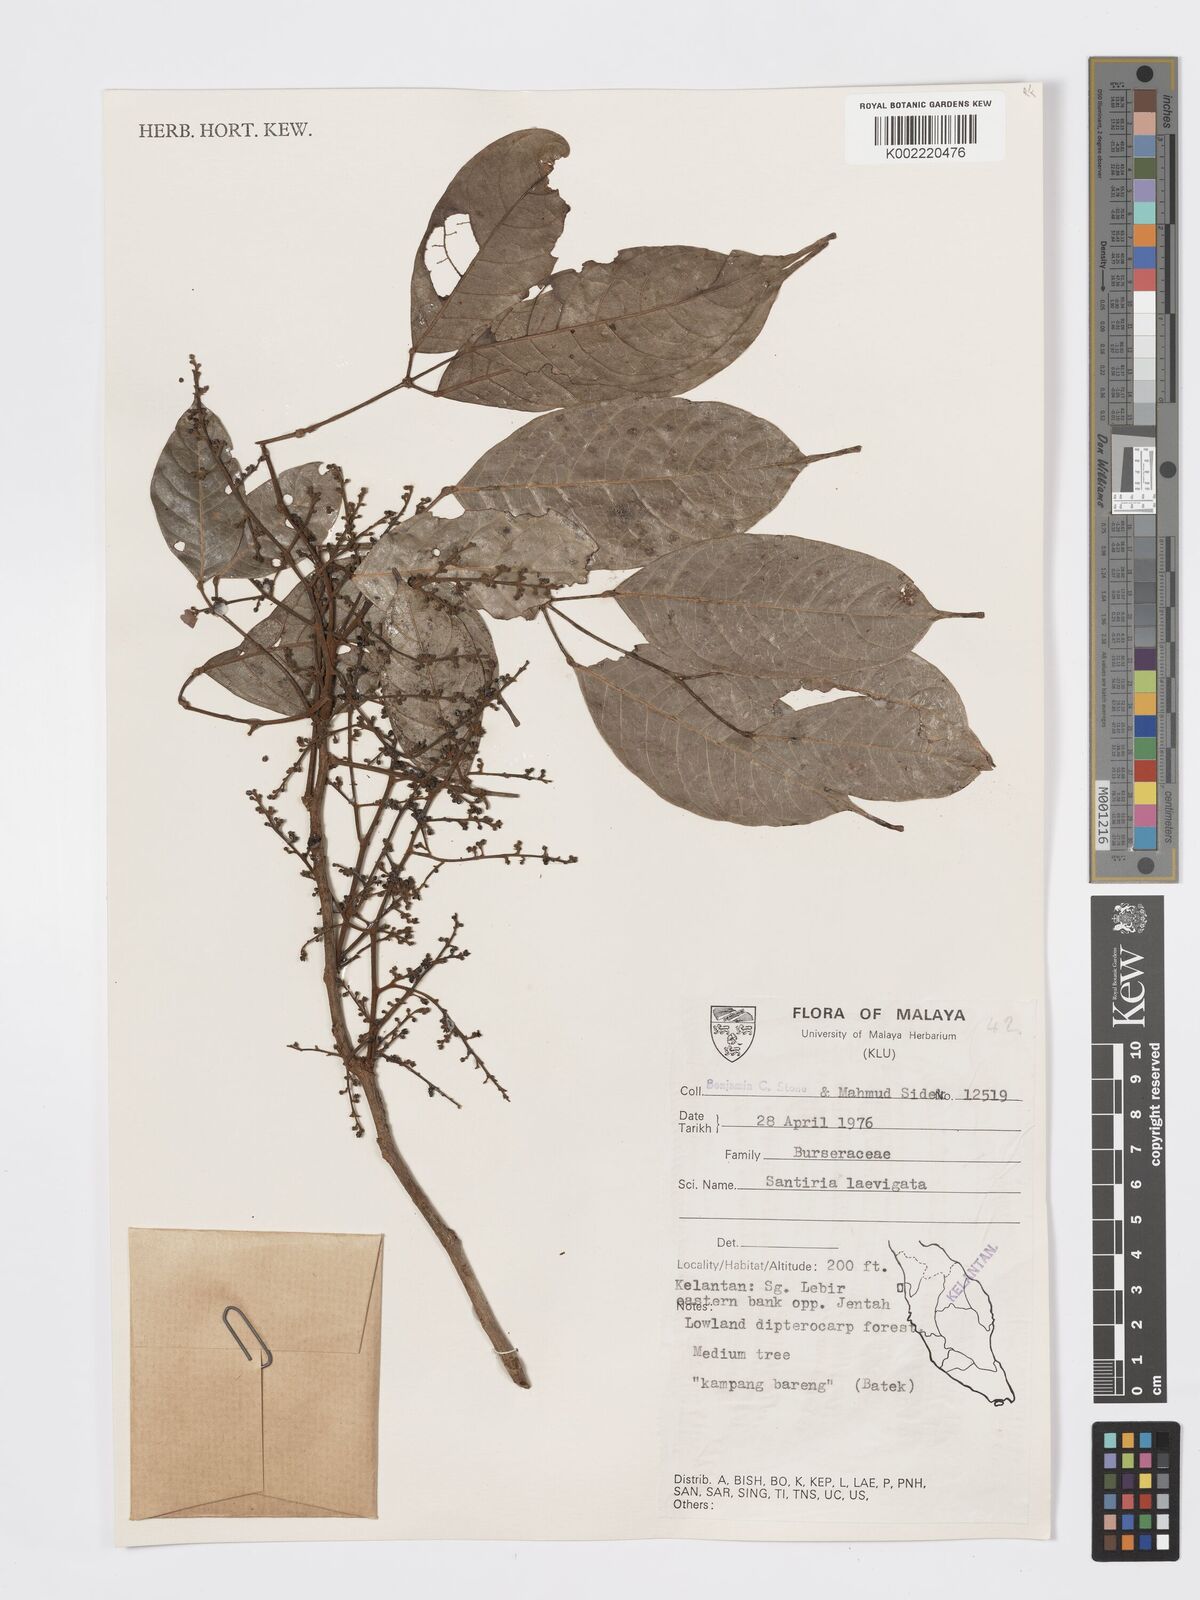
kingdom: Plantae
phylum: Tracheophyta
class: Magnoliopsida
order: Sapindales
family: Burseraceae
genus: Santiria
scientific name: Santiria laevigata
